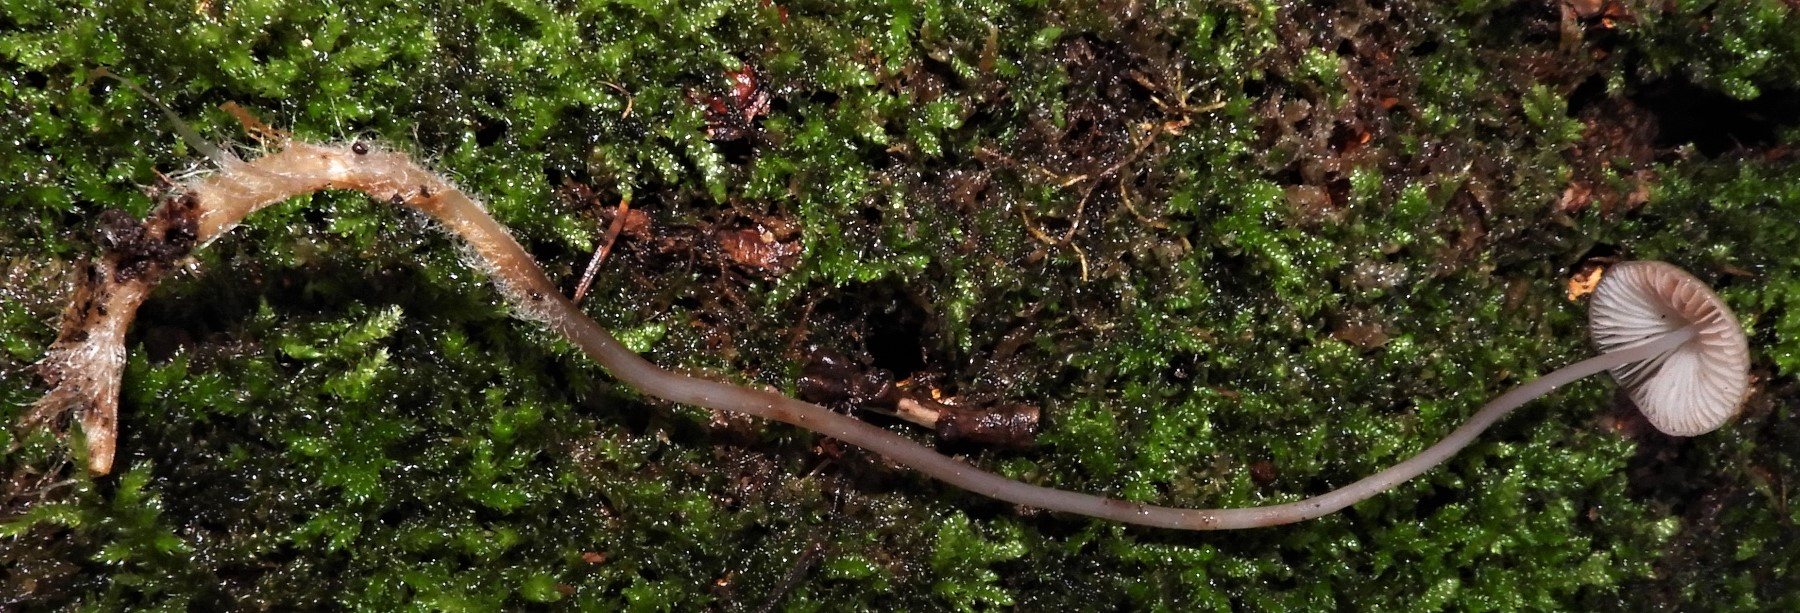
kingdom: Fungi
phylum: Basidiomycota
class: Agaricomycetes
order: Agaricales
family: Mycenaceae
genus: Mycena
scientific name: Mycena
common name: huesvamp
